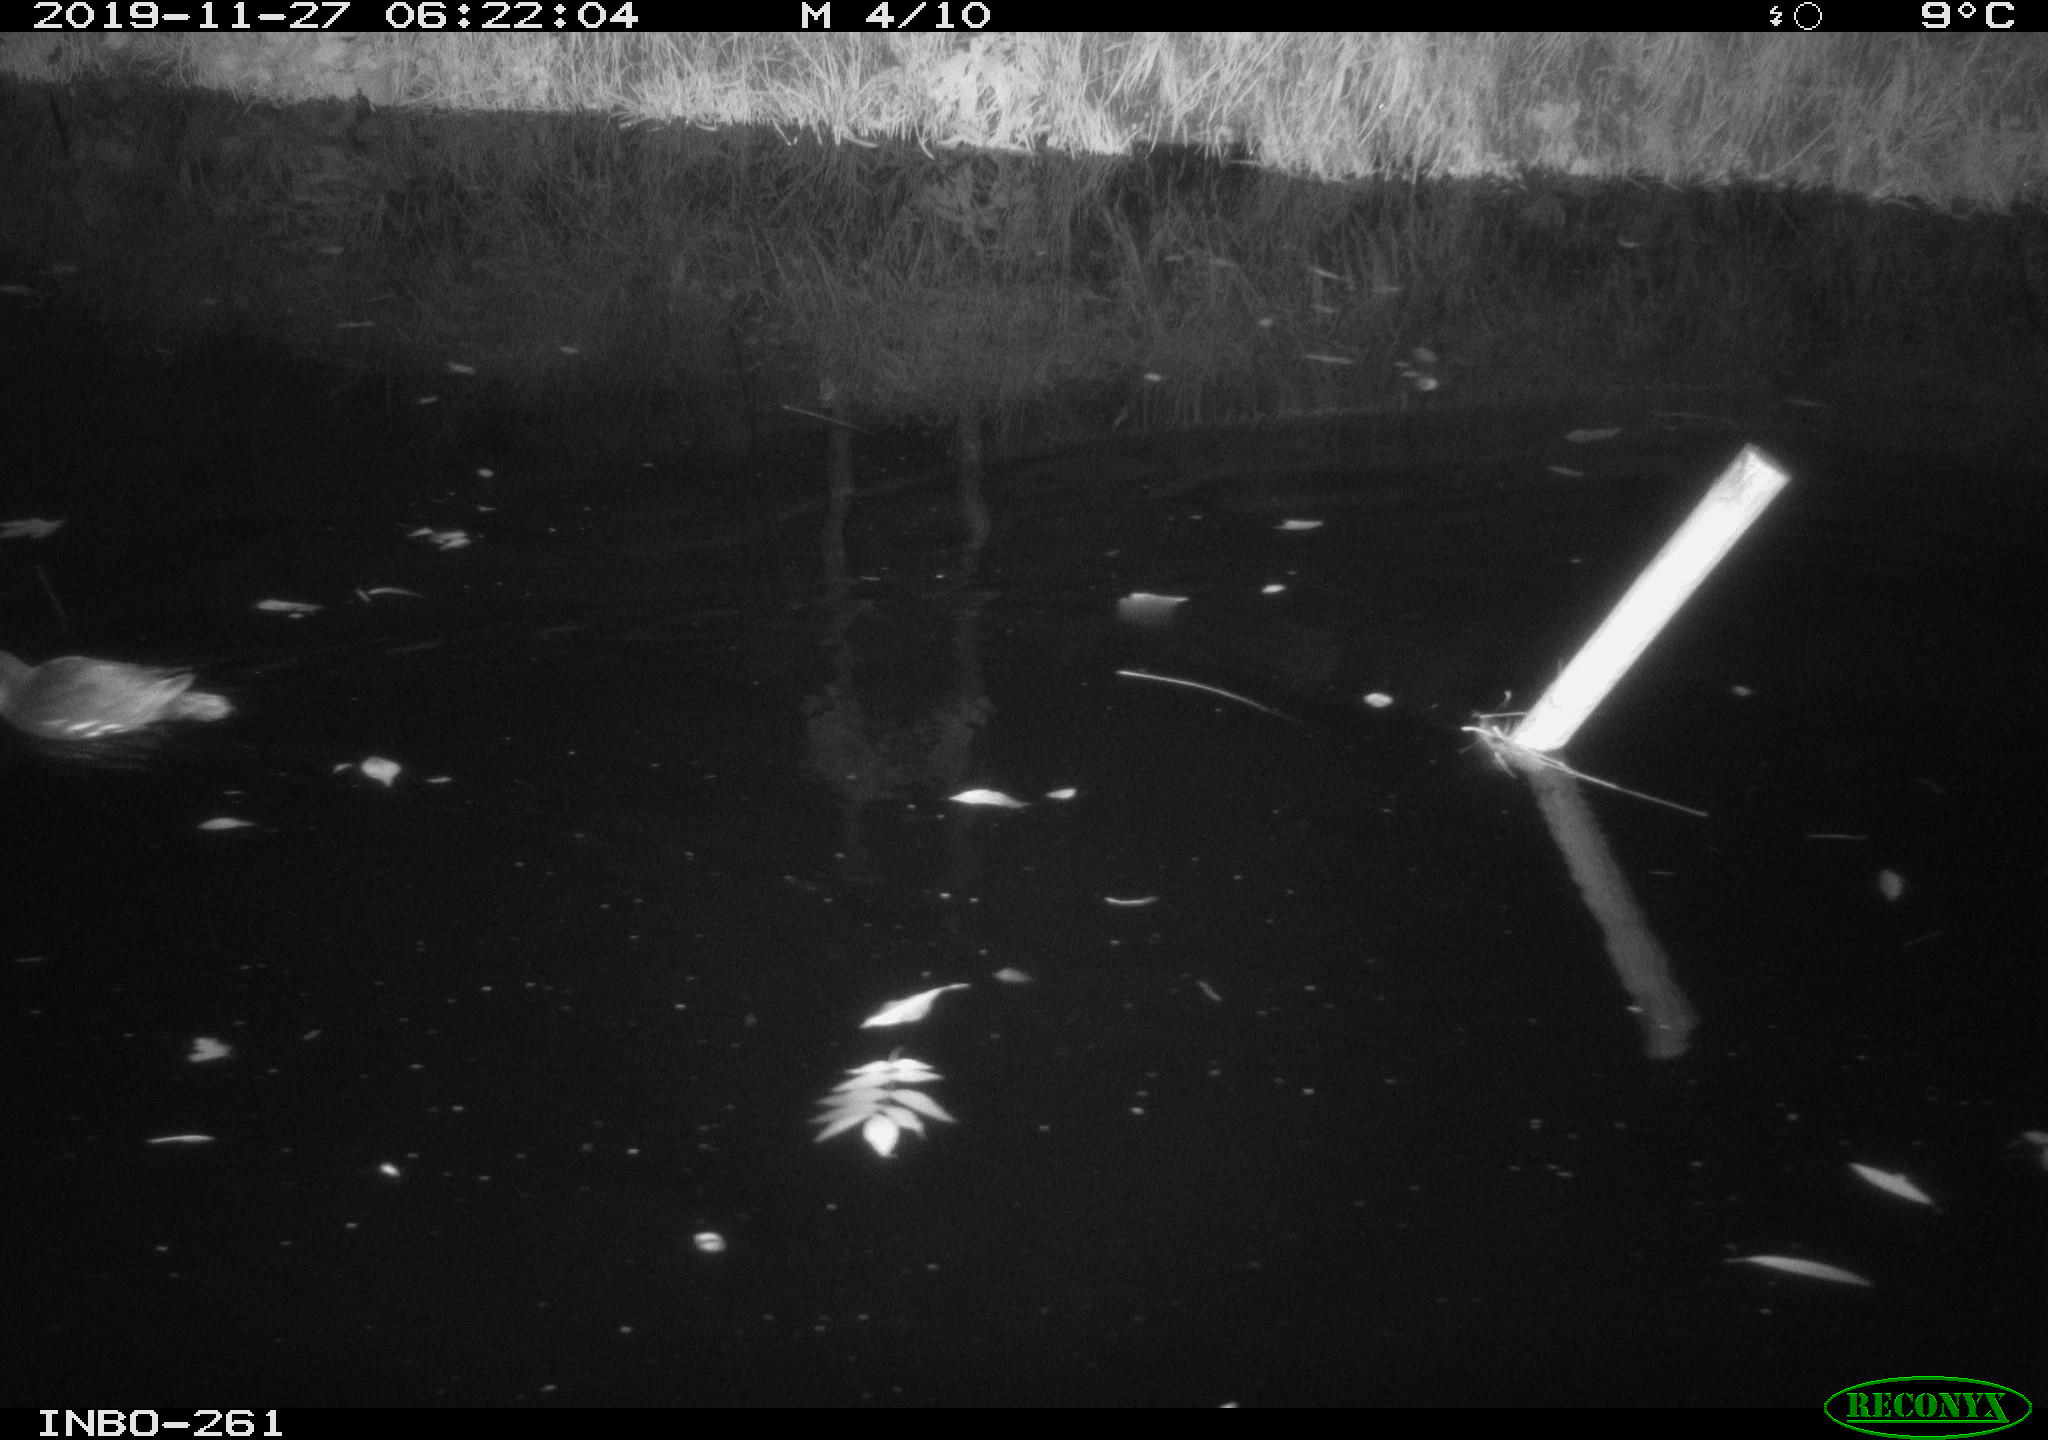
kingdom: Animalia
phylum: Chordata
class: Aves
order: Gruiformes
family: Rallidae
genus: Gallinula
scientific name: Gallinula chloropus
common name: Common moorhen
